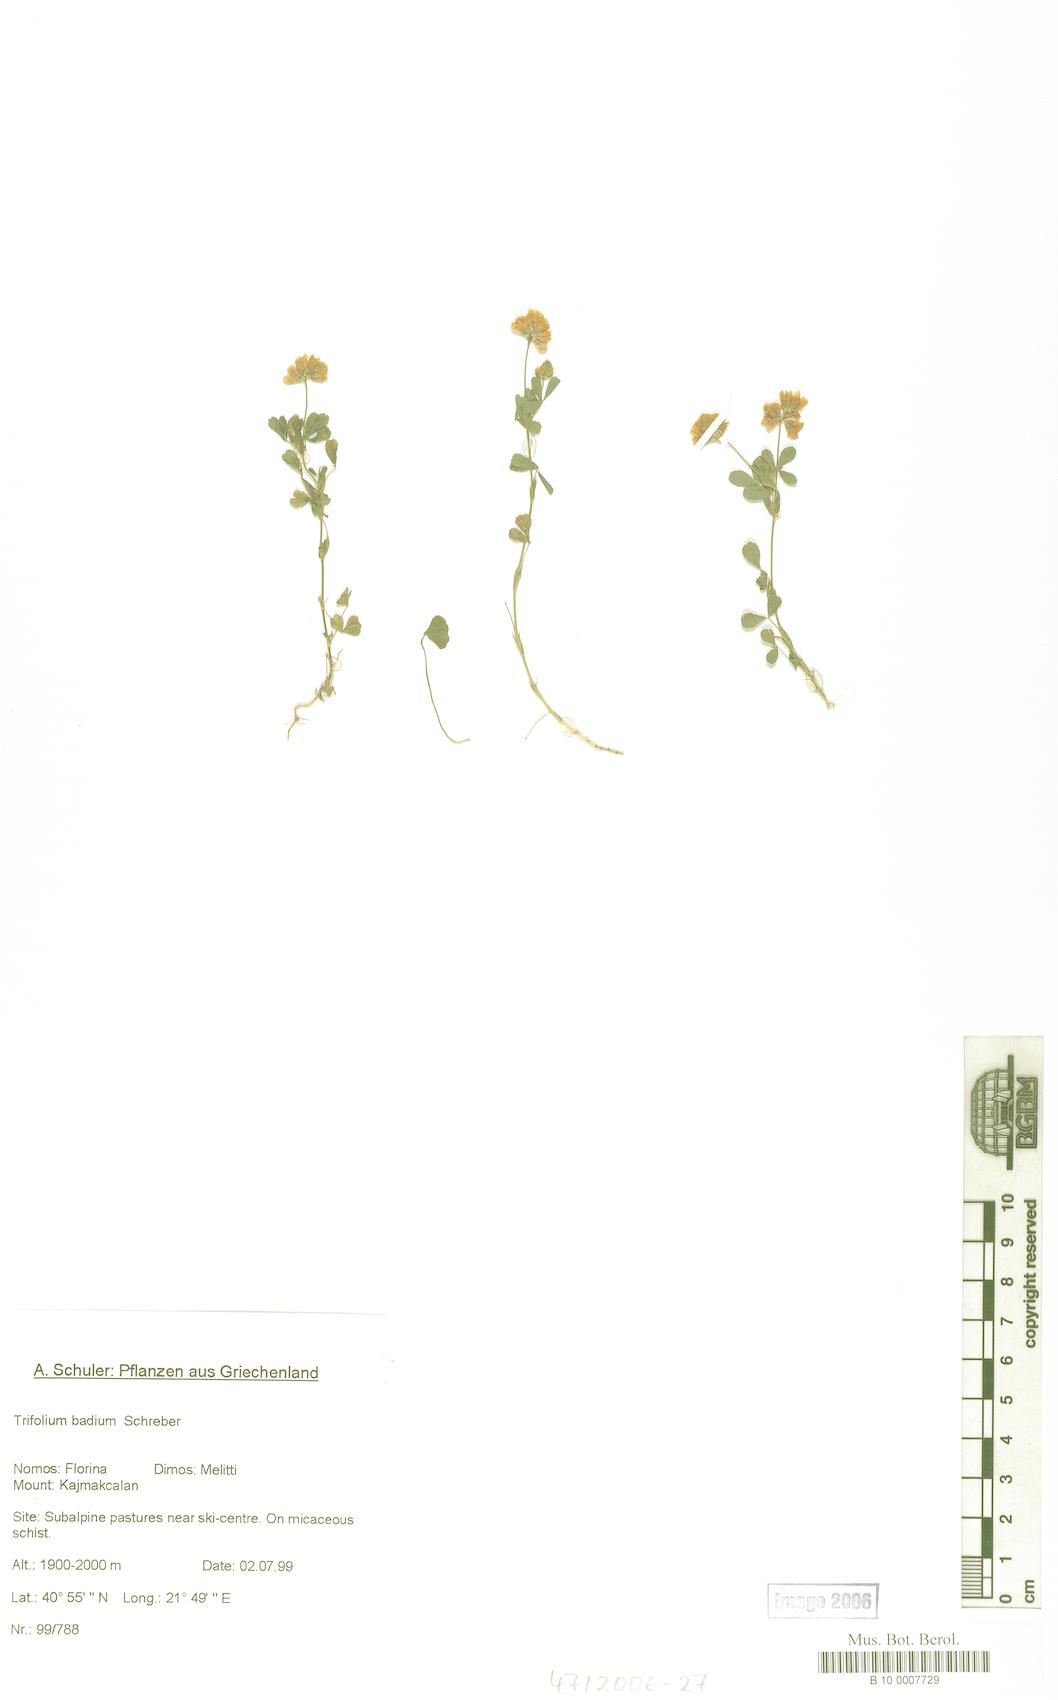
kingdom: Plantae
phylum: Tracheophyta
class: Magnoliopsida
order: Fabales
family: Fabaceae
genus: Trifolium
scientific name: Trifolium badium
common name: Brown clover
